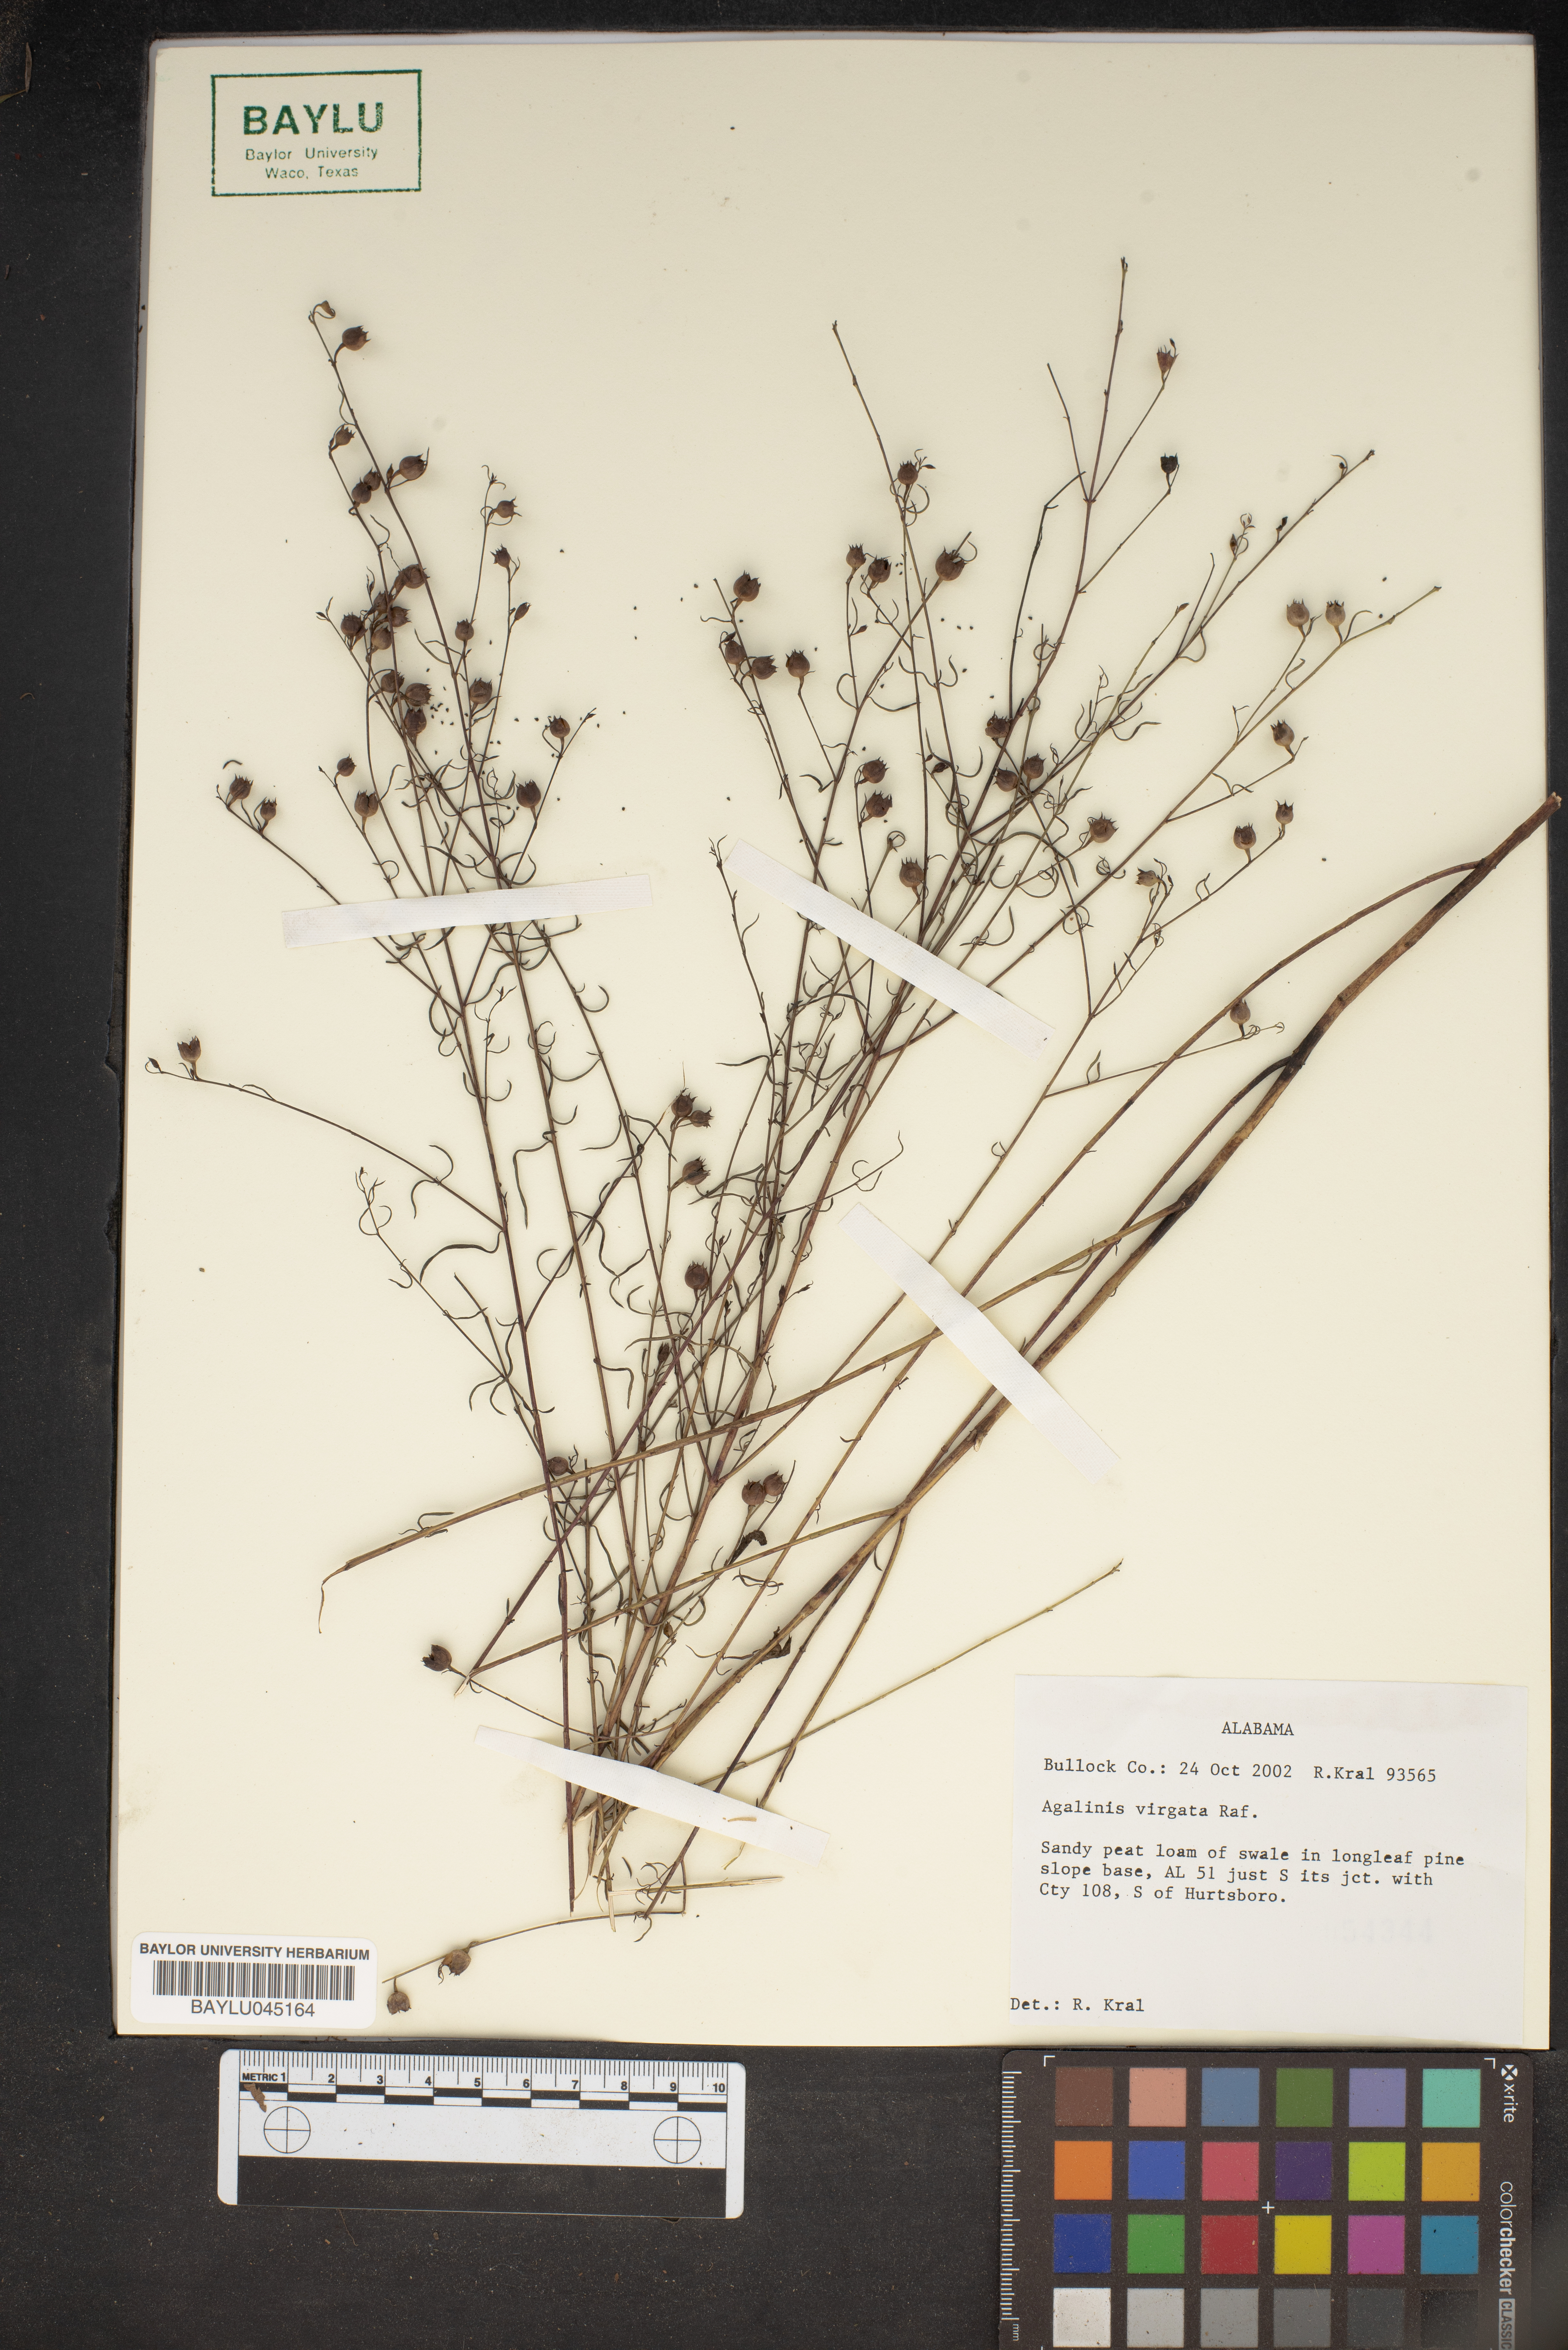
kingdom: Plantae
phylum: Tracheophyta
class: Magnoliopsida
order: Lamiales
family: Orobanchaceae
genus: Seymeria
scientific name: Seymeria virgata
